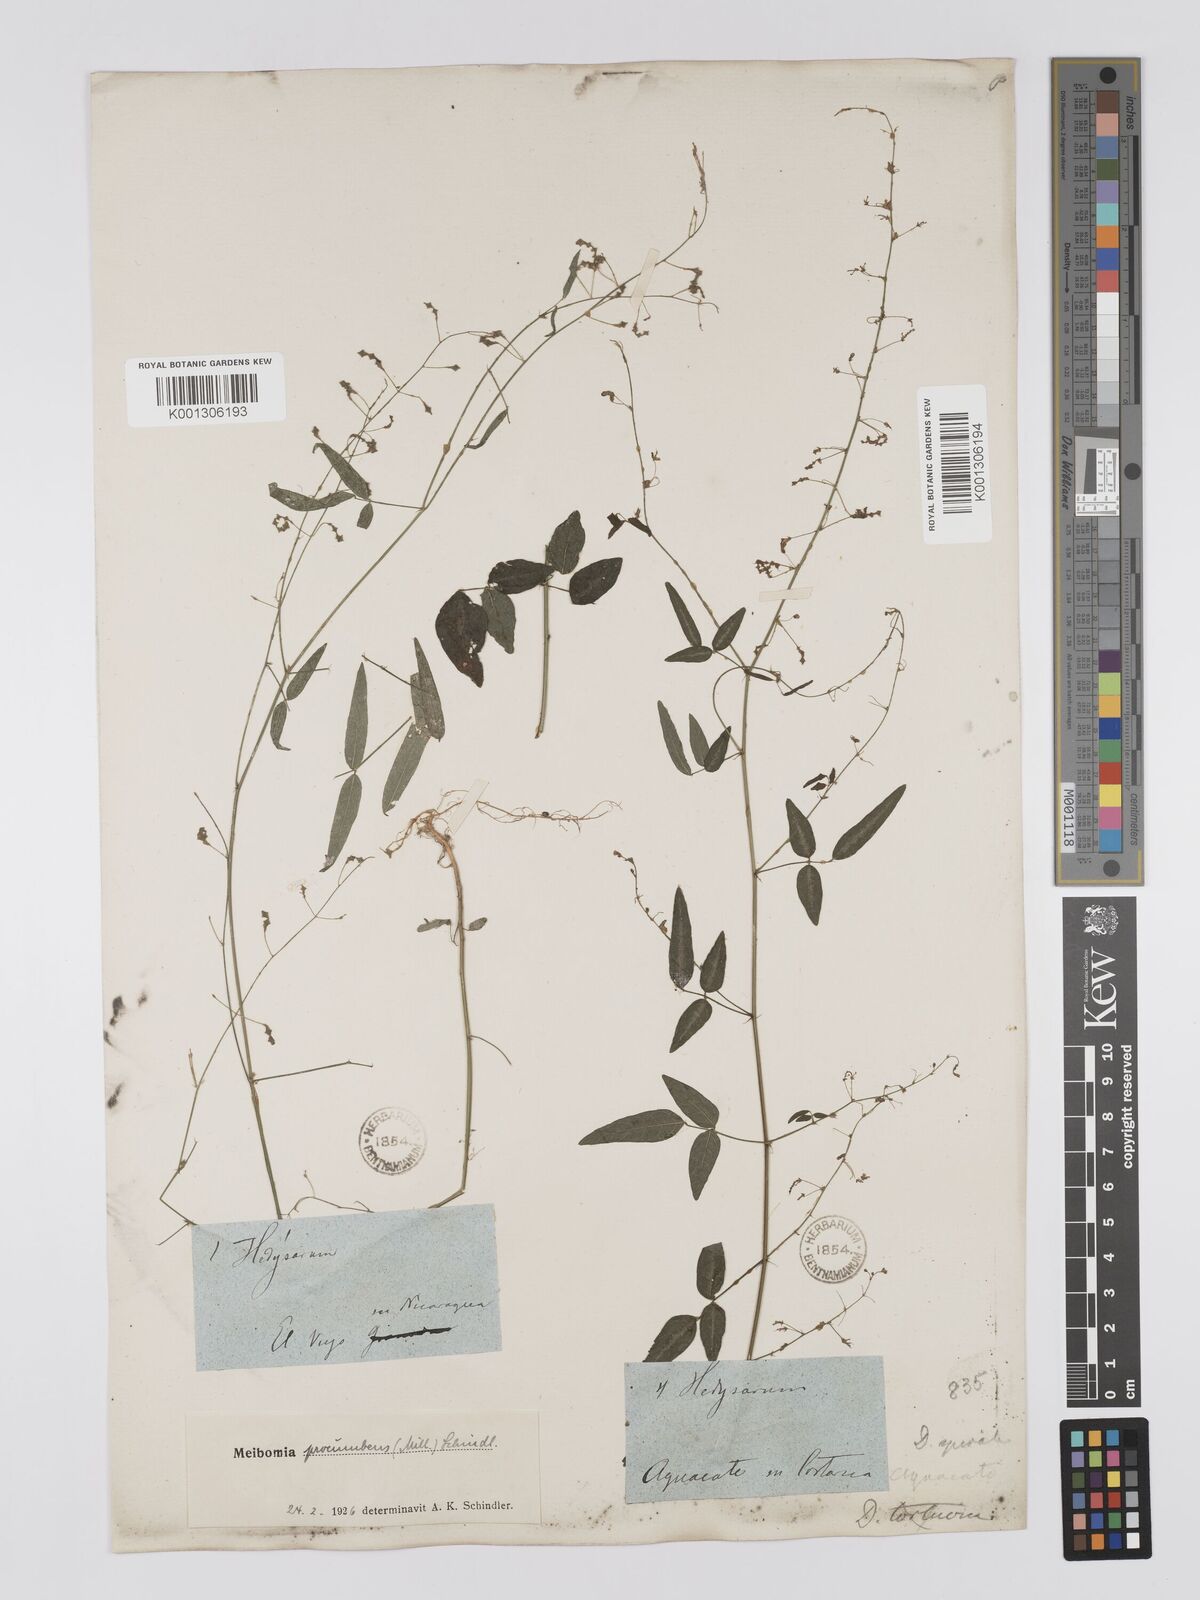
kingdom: Plantae
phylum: Tracheophyta
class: Magnoliopsida
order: Fabales
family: Fabaceae
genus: Desmodium
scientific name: Desmodium procumbens
